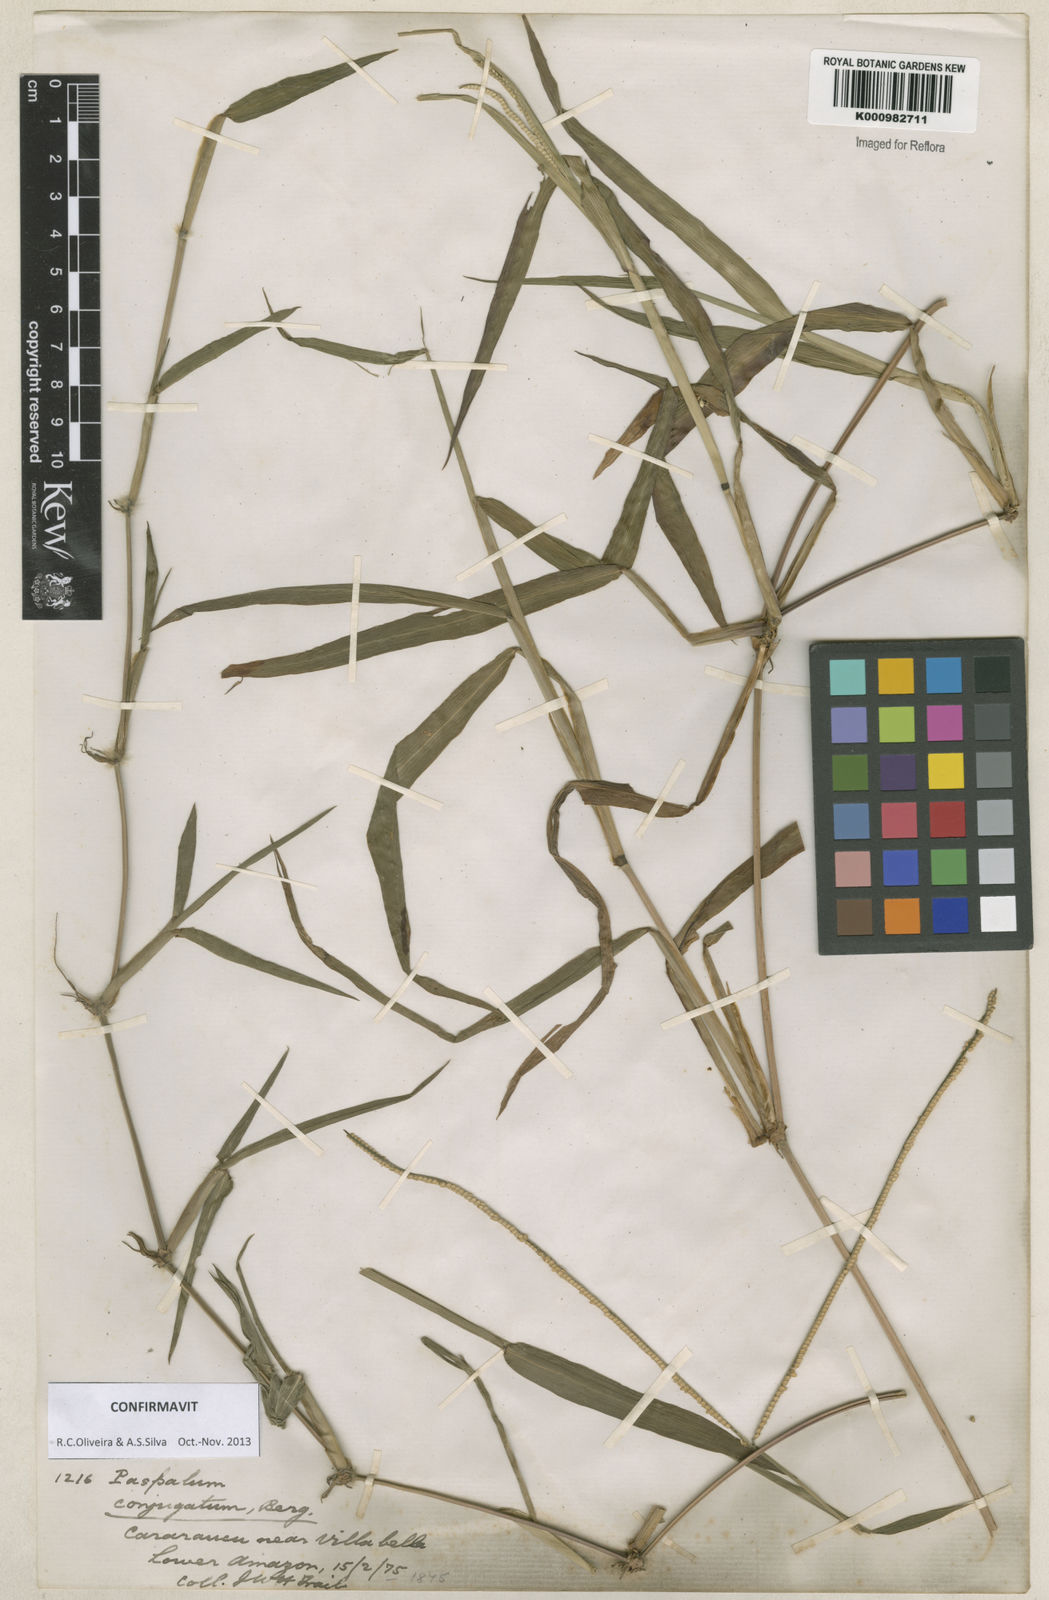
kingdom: Plantae
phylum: Tracheophyta
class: Liliopsida
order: Poales
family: Poaceae
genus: Paspalum
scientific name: Paspalum conjugatum
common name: Hilograss
